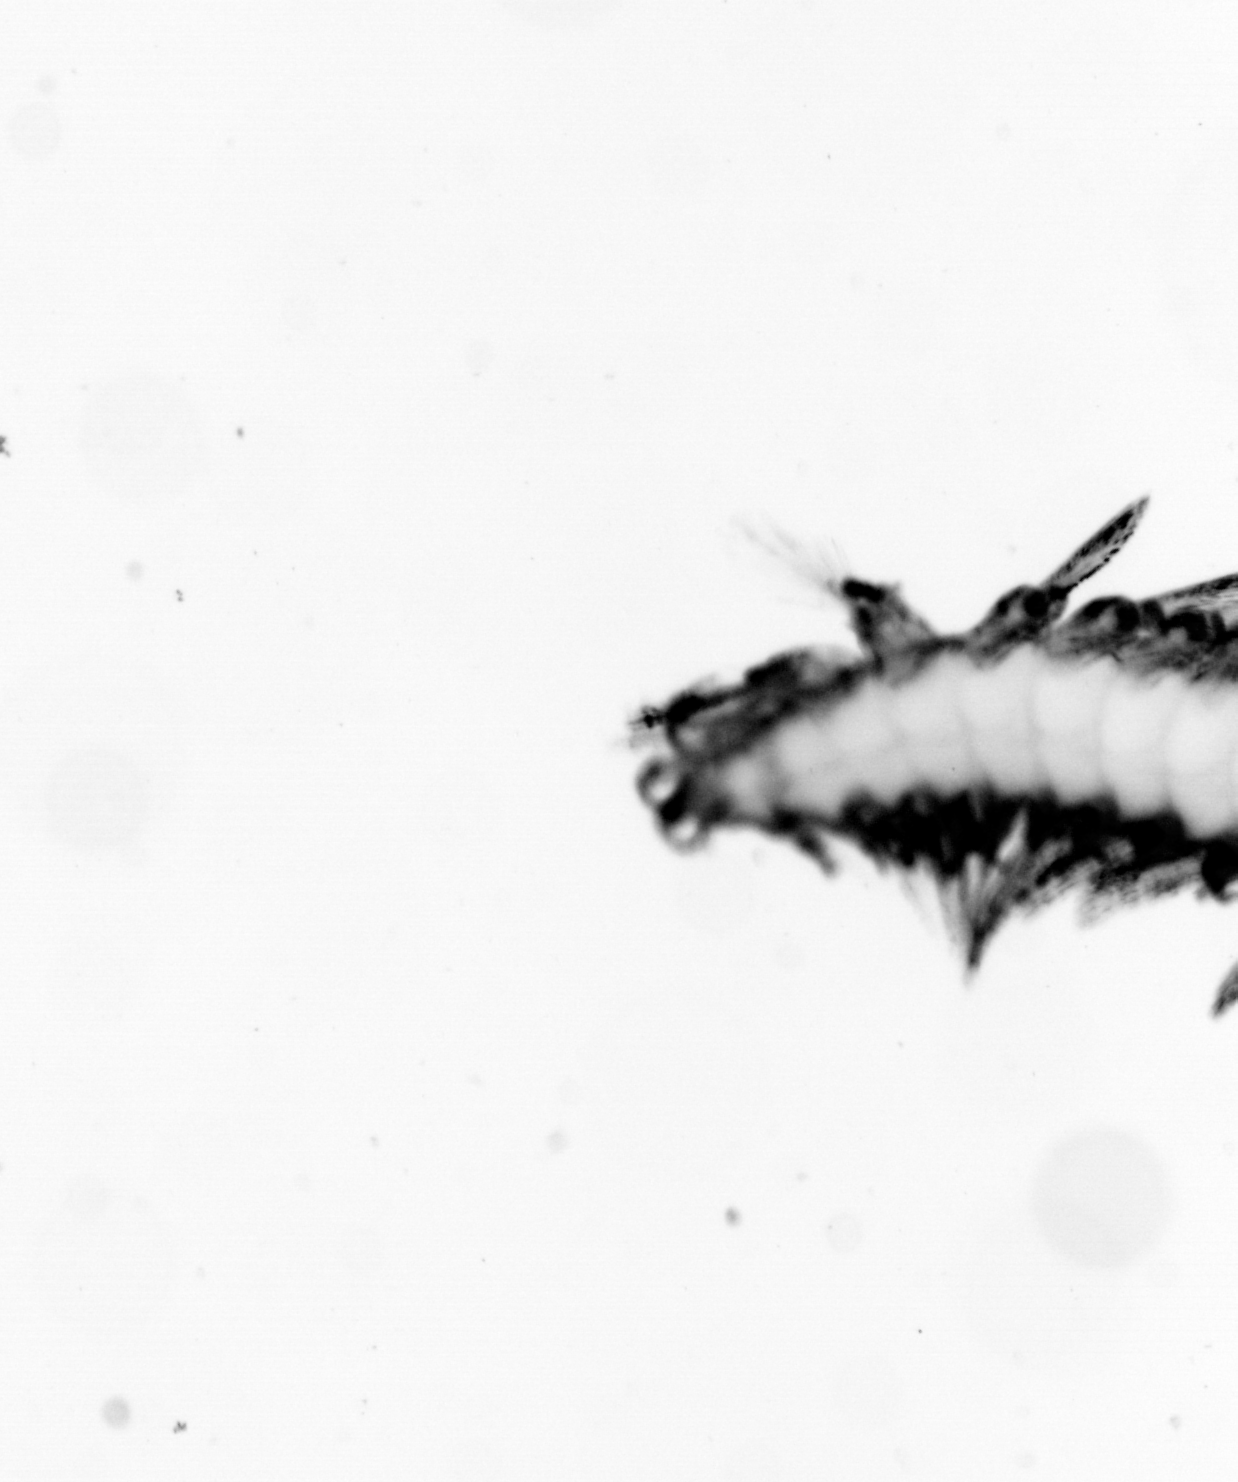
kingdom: Animalia
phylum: Annelida
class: Polychaeta
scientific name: Polychaeta
